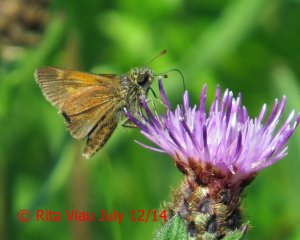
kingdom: Animalia
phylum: Arthropoda
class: Insecta
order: Lepidoptera
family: Hesperiidae
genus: Polites
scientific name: Polites themistocles
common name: Tawny-edged Skipper
